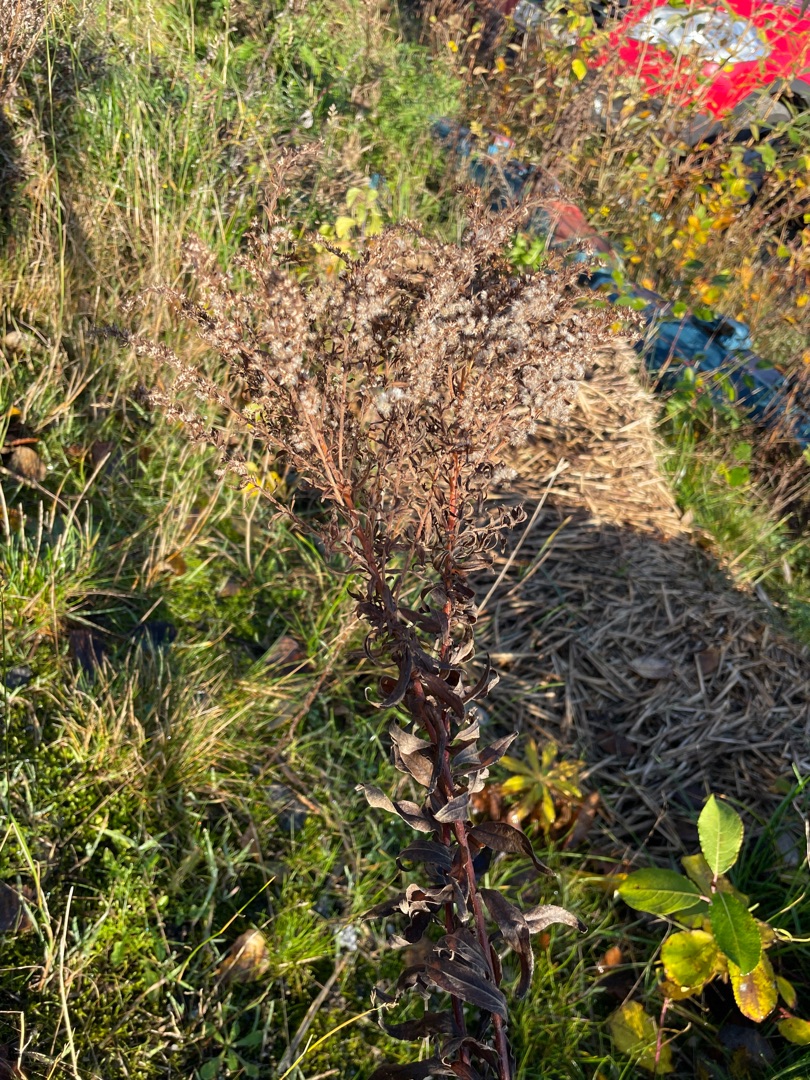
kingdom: Plantae
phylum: Tracheophyta
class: Magnoliopsida
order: Asterales
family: Asteraceae
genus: Solidago
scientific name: Solidago
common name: Gyldenrisslægten
